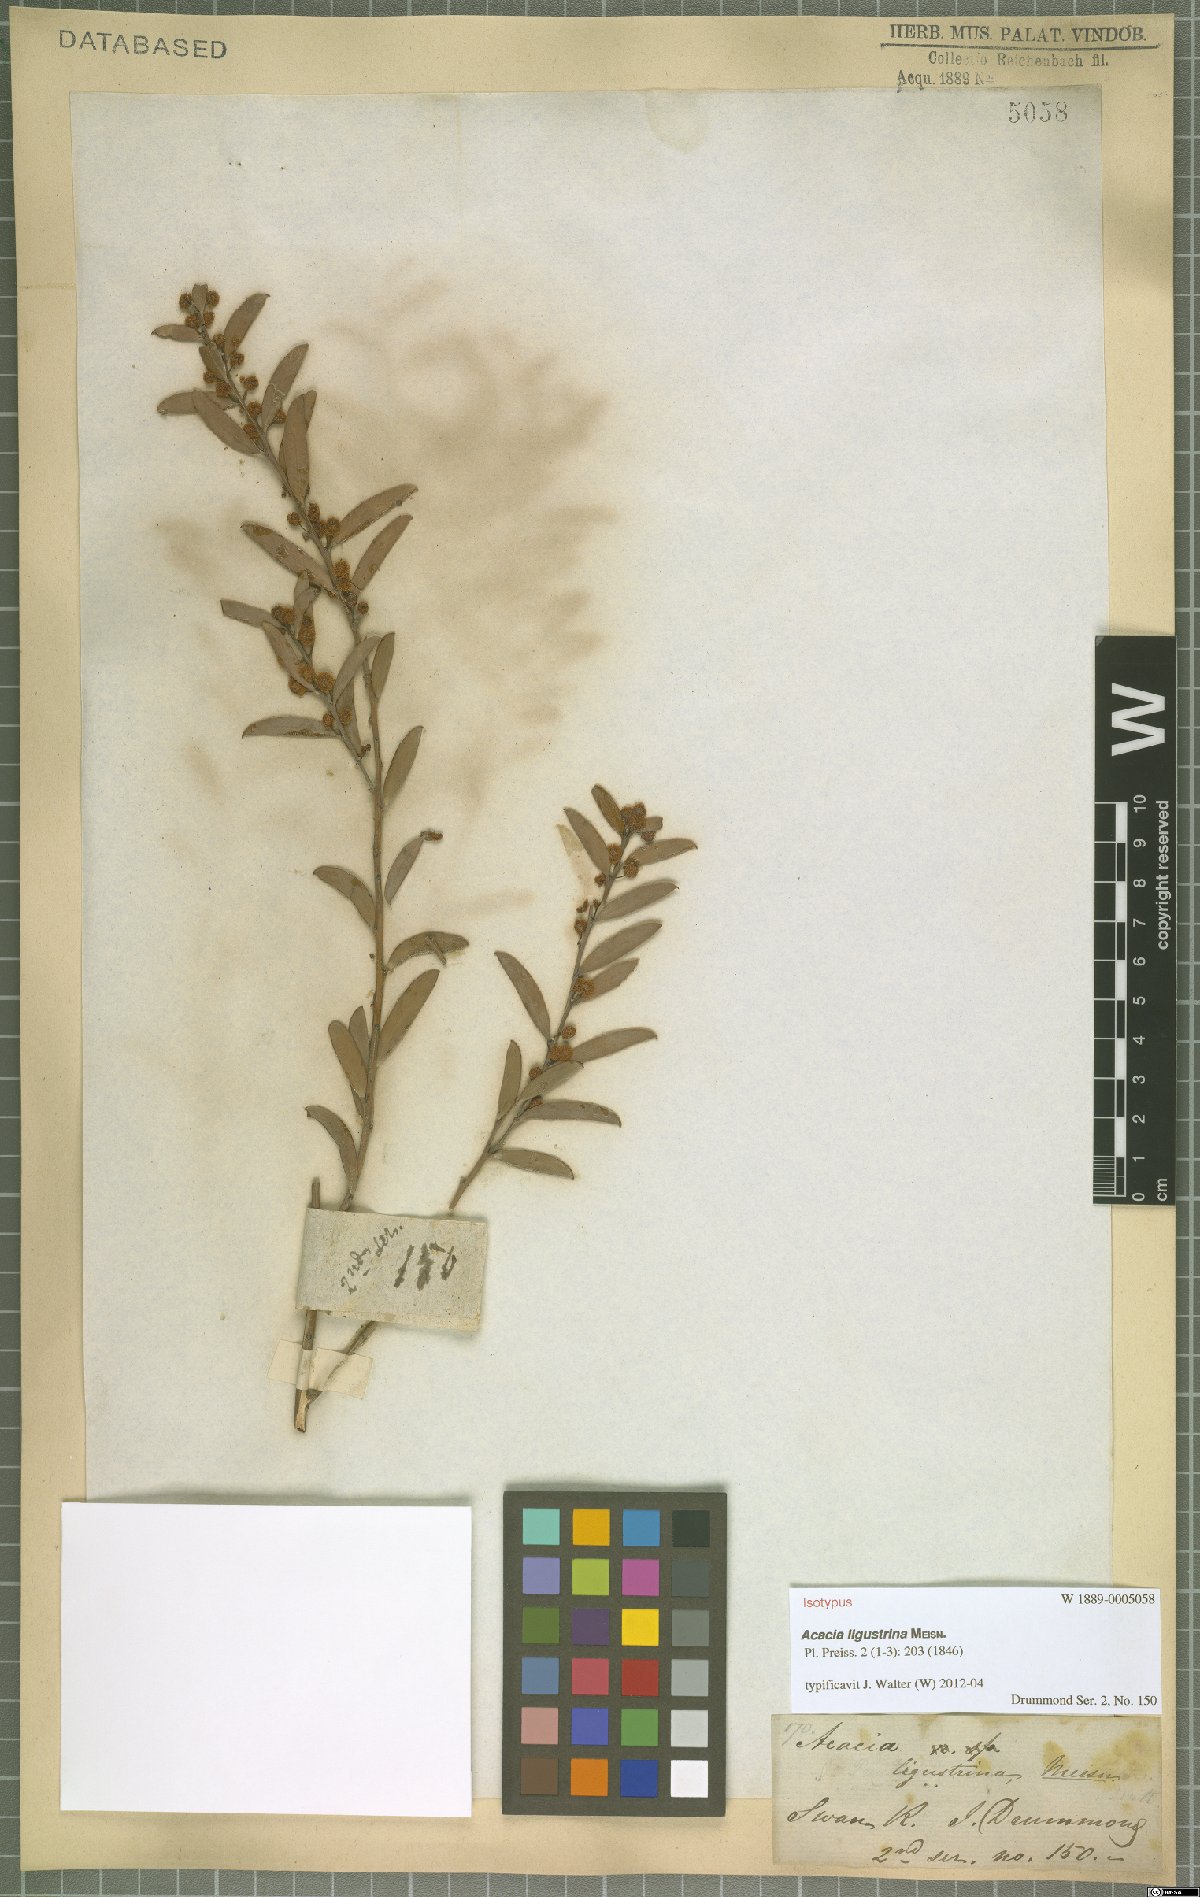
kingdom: Plantae
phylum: Tracheophyta
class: Magnoliopsida
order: Fabales
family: Fabaceae
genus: Acacia
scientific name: Acacia ligustrina
